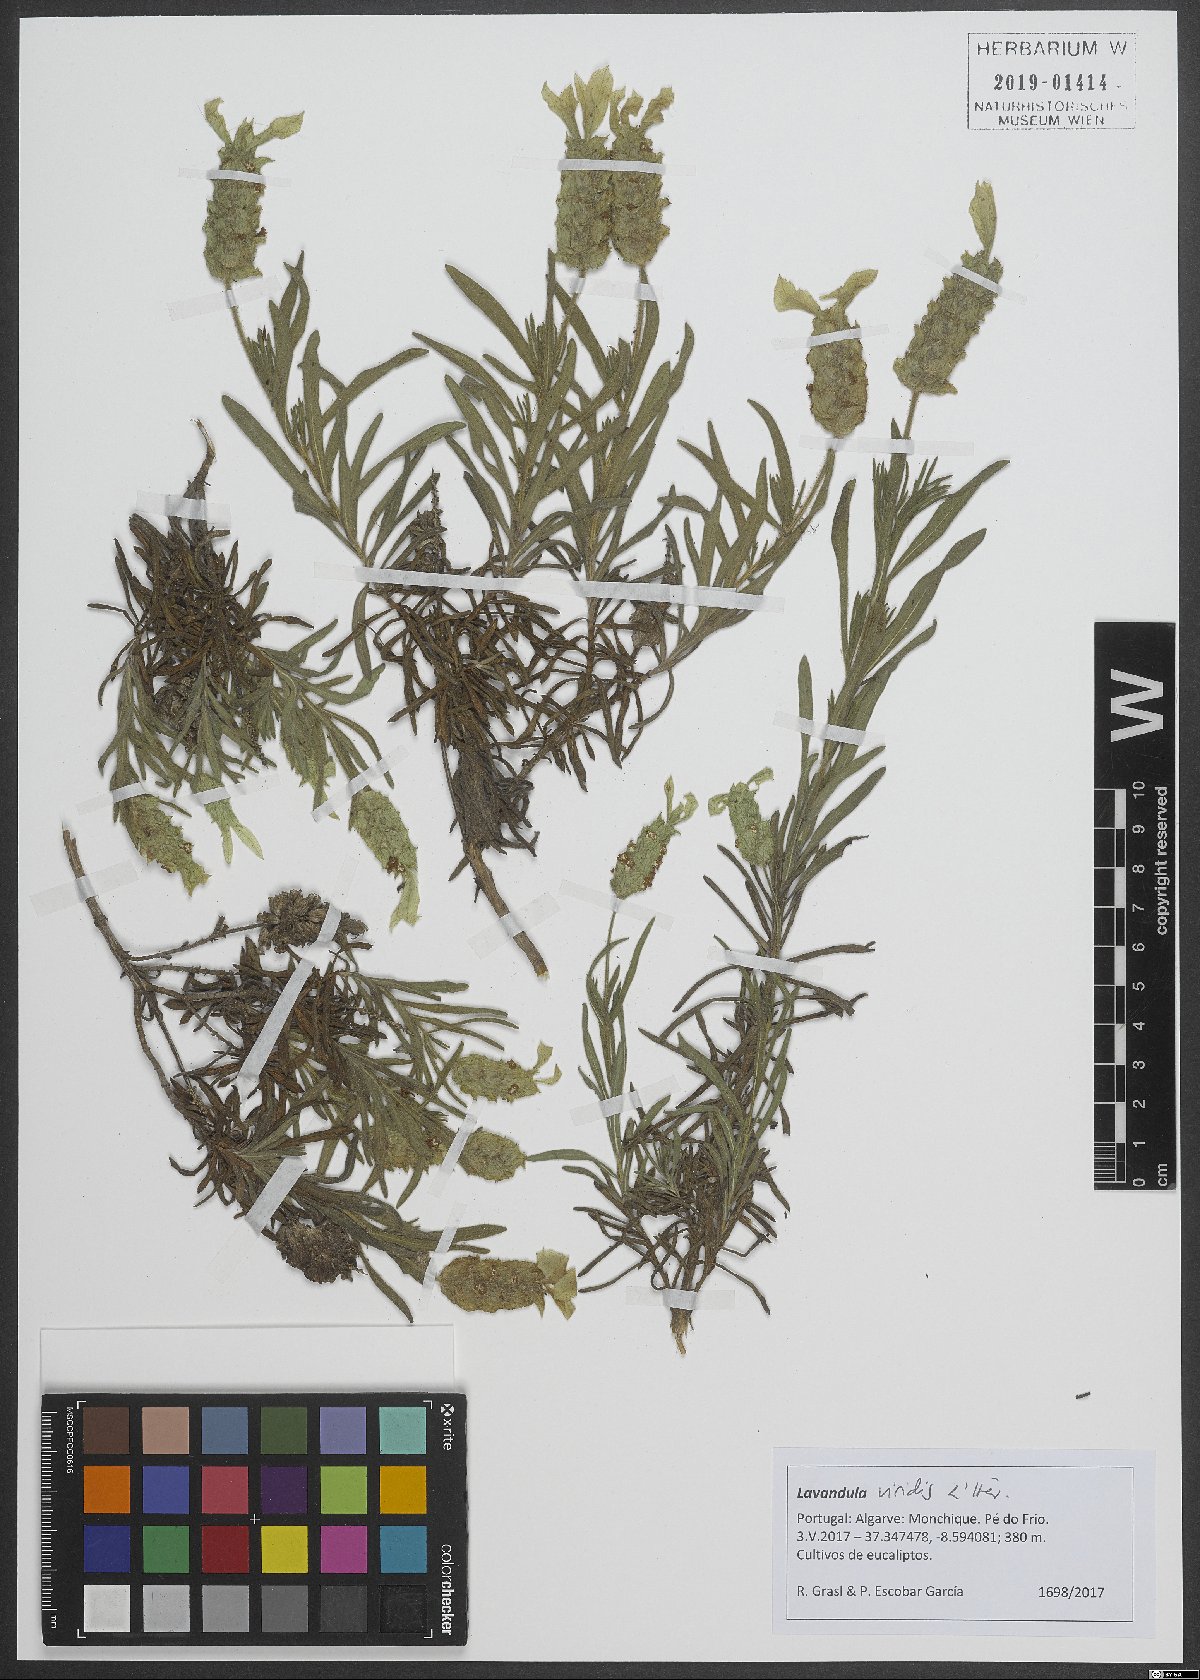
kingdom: Plantae
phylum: Tracheophyta
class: Magnoliopsida
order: Lamiales
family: Lamiaceae
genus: Lavandula
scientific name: Lavandula viridis
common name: Green spanish lavender
